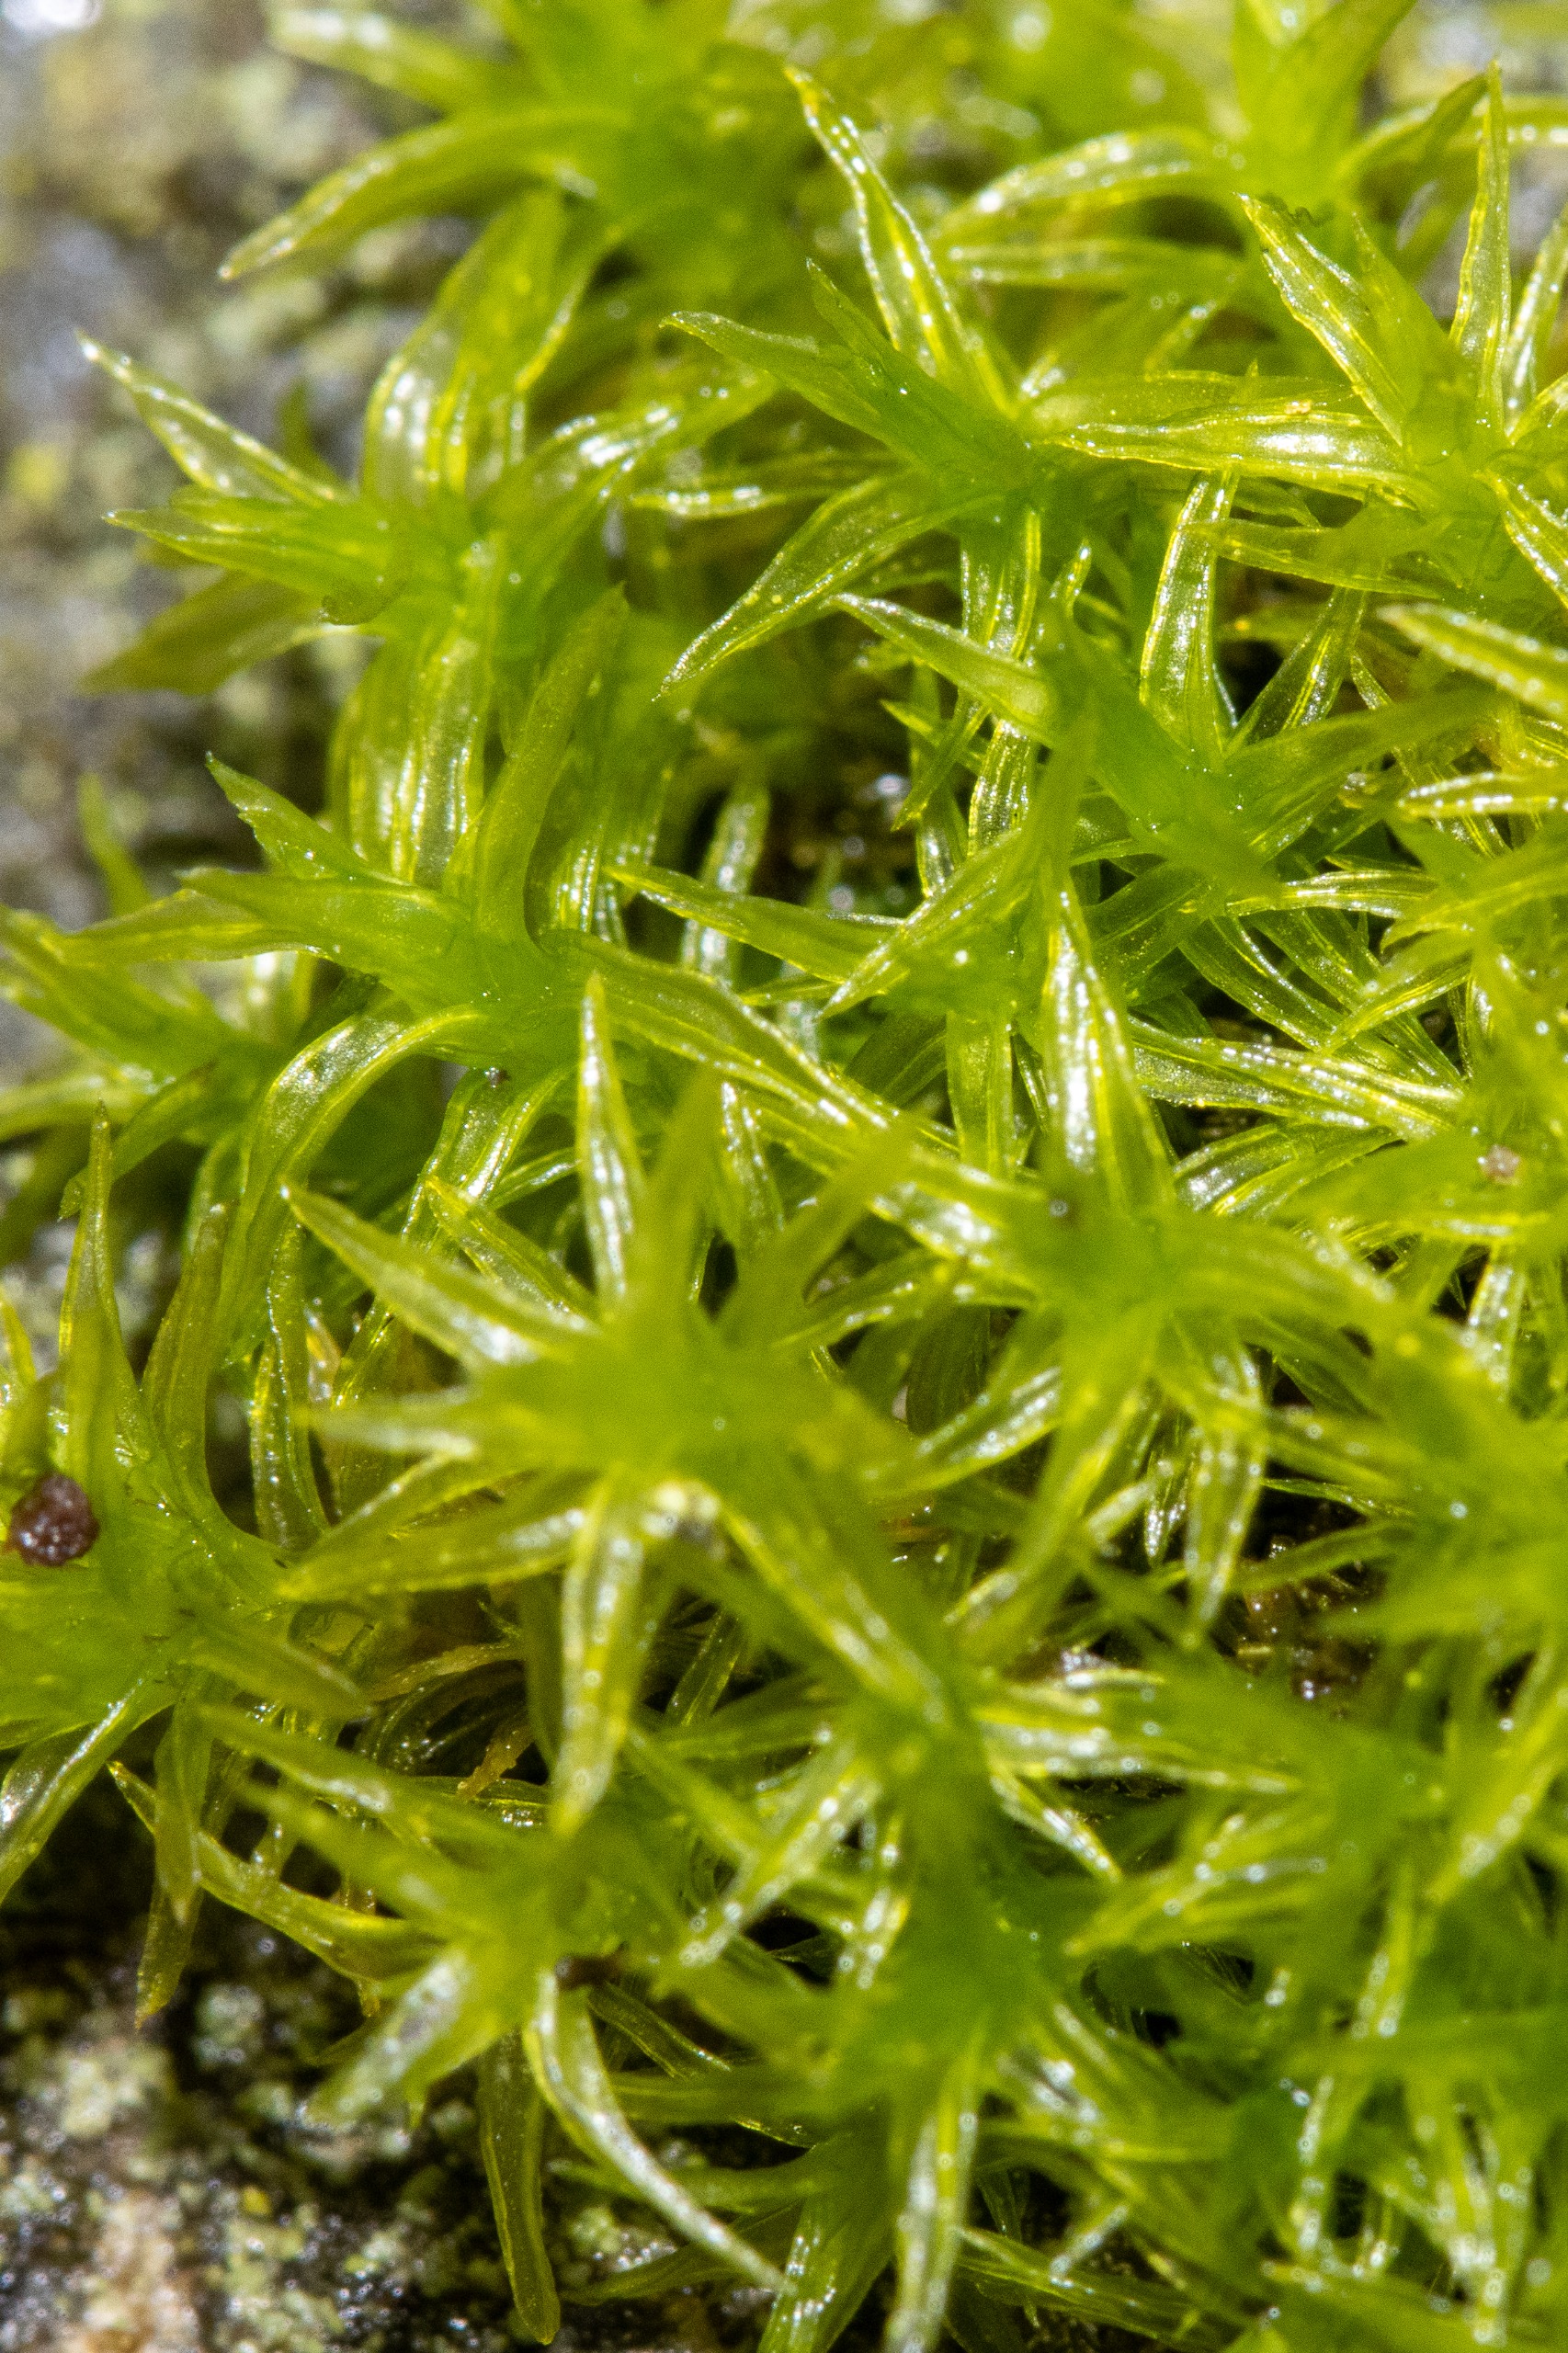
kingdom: Plantae
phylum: Bryophyta
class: Bryopsida
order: Orthotrichales
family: Orthotrichaceae
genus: Orthotrichum
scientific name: Orthotrichum
